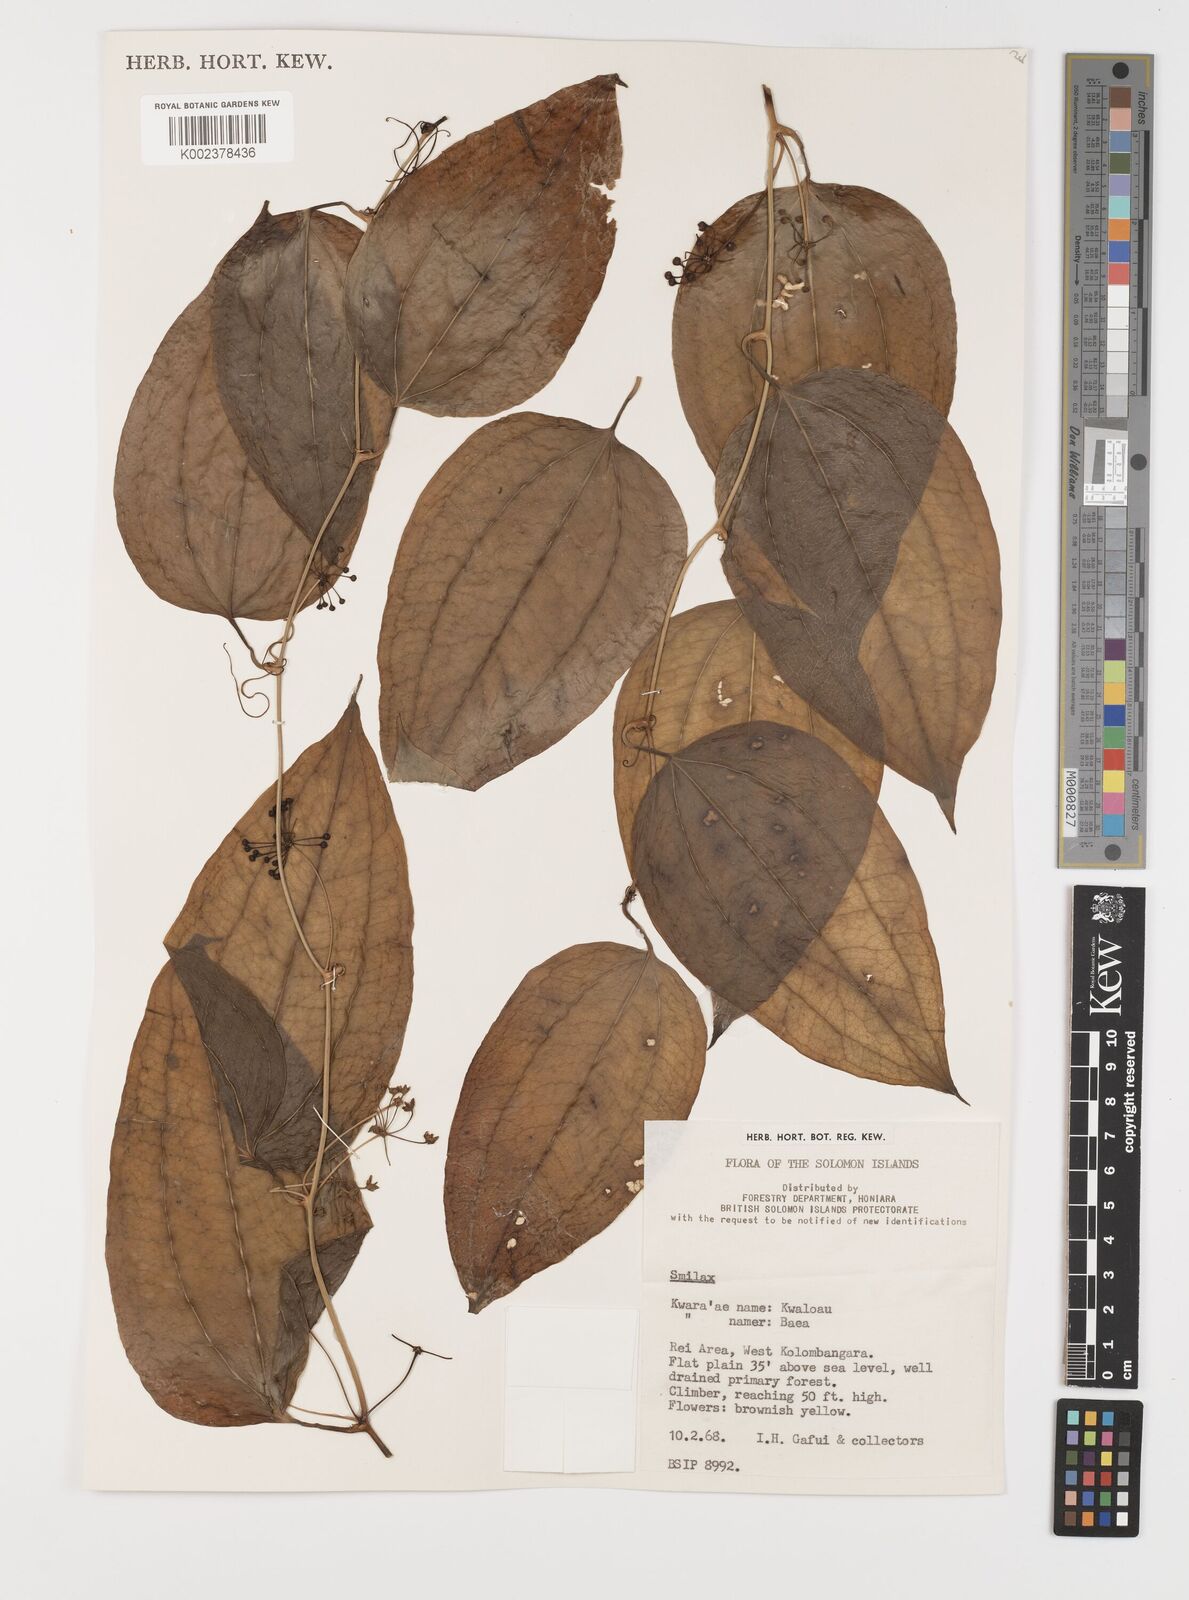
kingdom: Plantae
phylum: Tracheophyta
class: Liliopsida
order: Liliales
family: Smilacaceae
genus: Smilax
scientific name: Smilax
